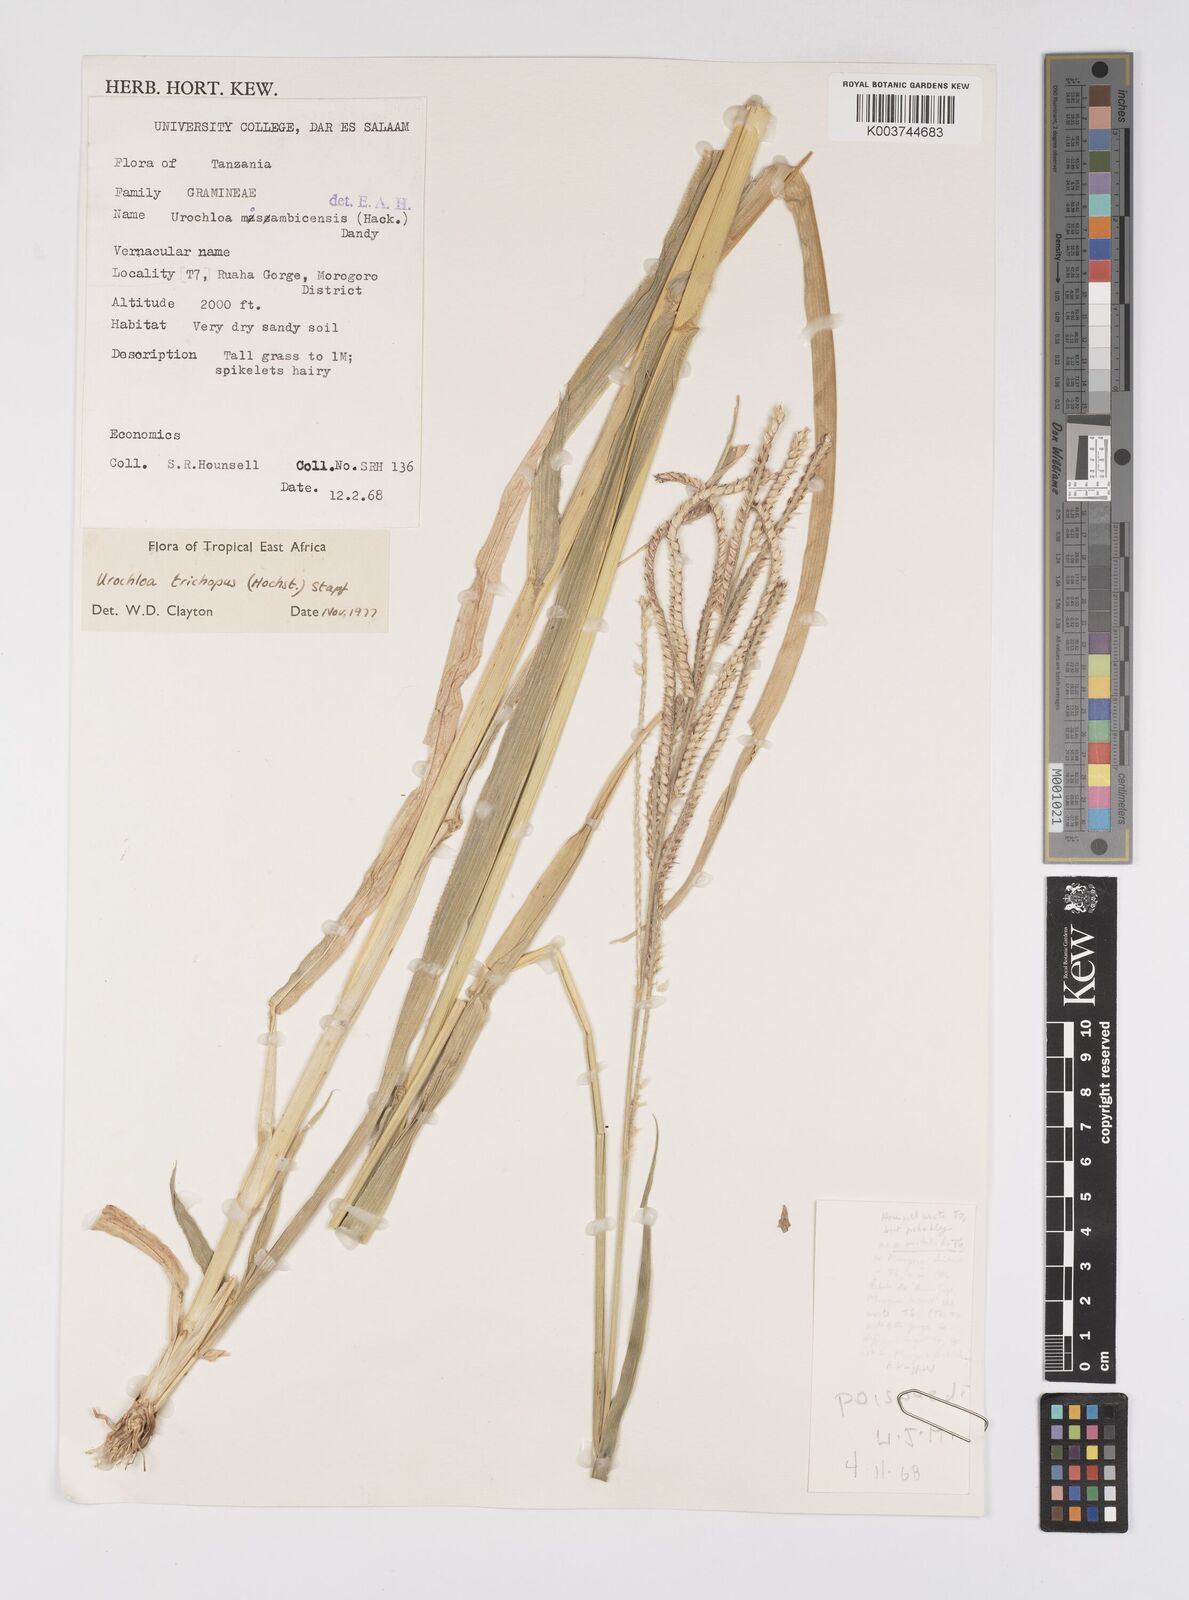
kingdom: Plantae
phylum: Tracheophyta
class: Liliopsida
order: Poales
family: Poaceae
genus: Urochloa
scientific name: Urochloa trichopus
